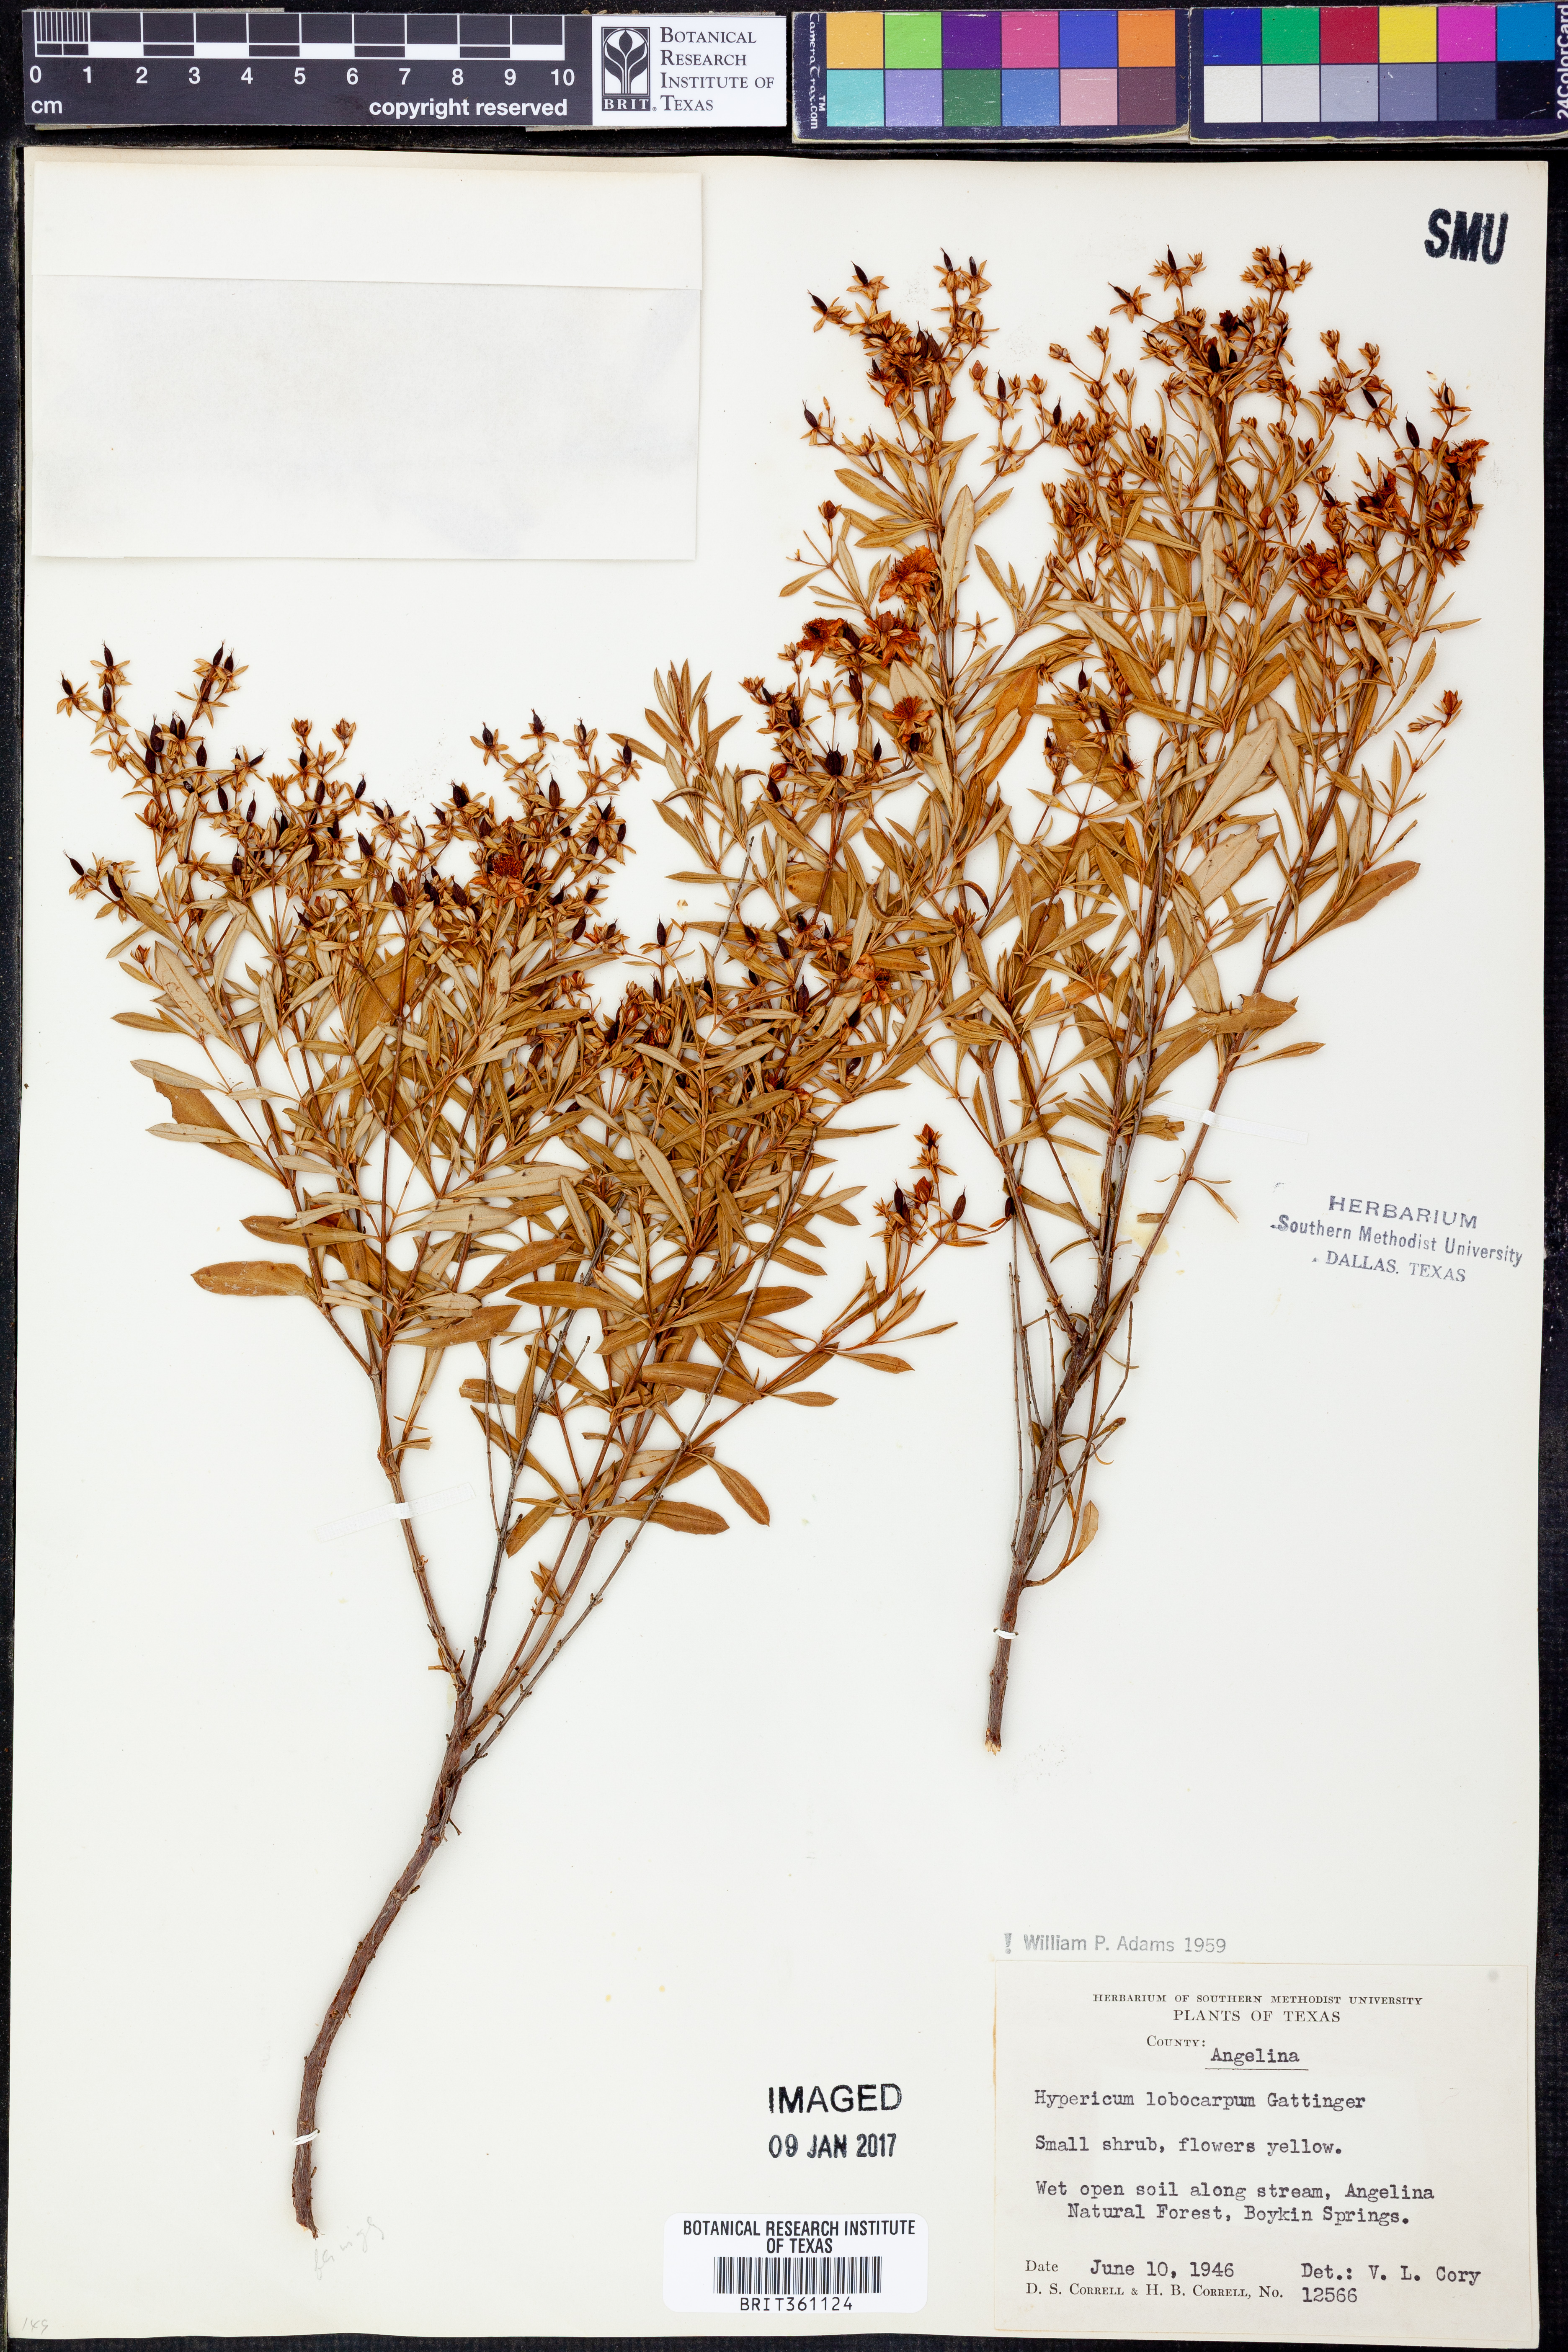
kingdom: Plantae
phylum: Tracheophyta
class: Magnoliopsida
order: Malpighiales
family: Hypericaceae
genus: Hypericum
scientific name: Hypericum lobocarpum
